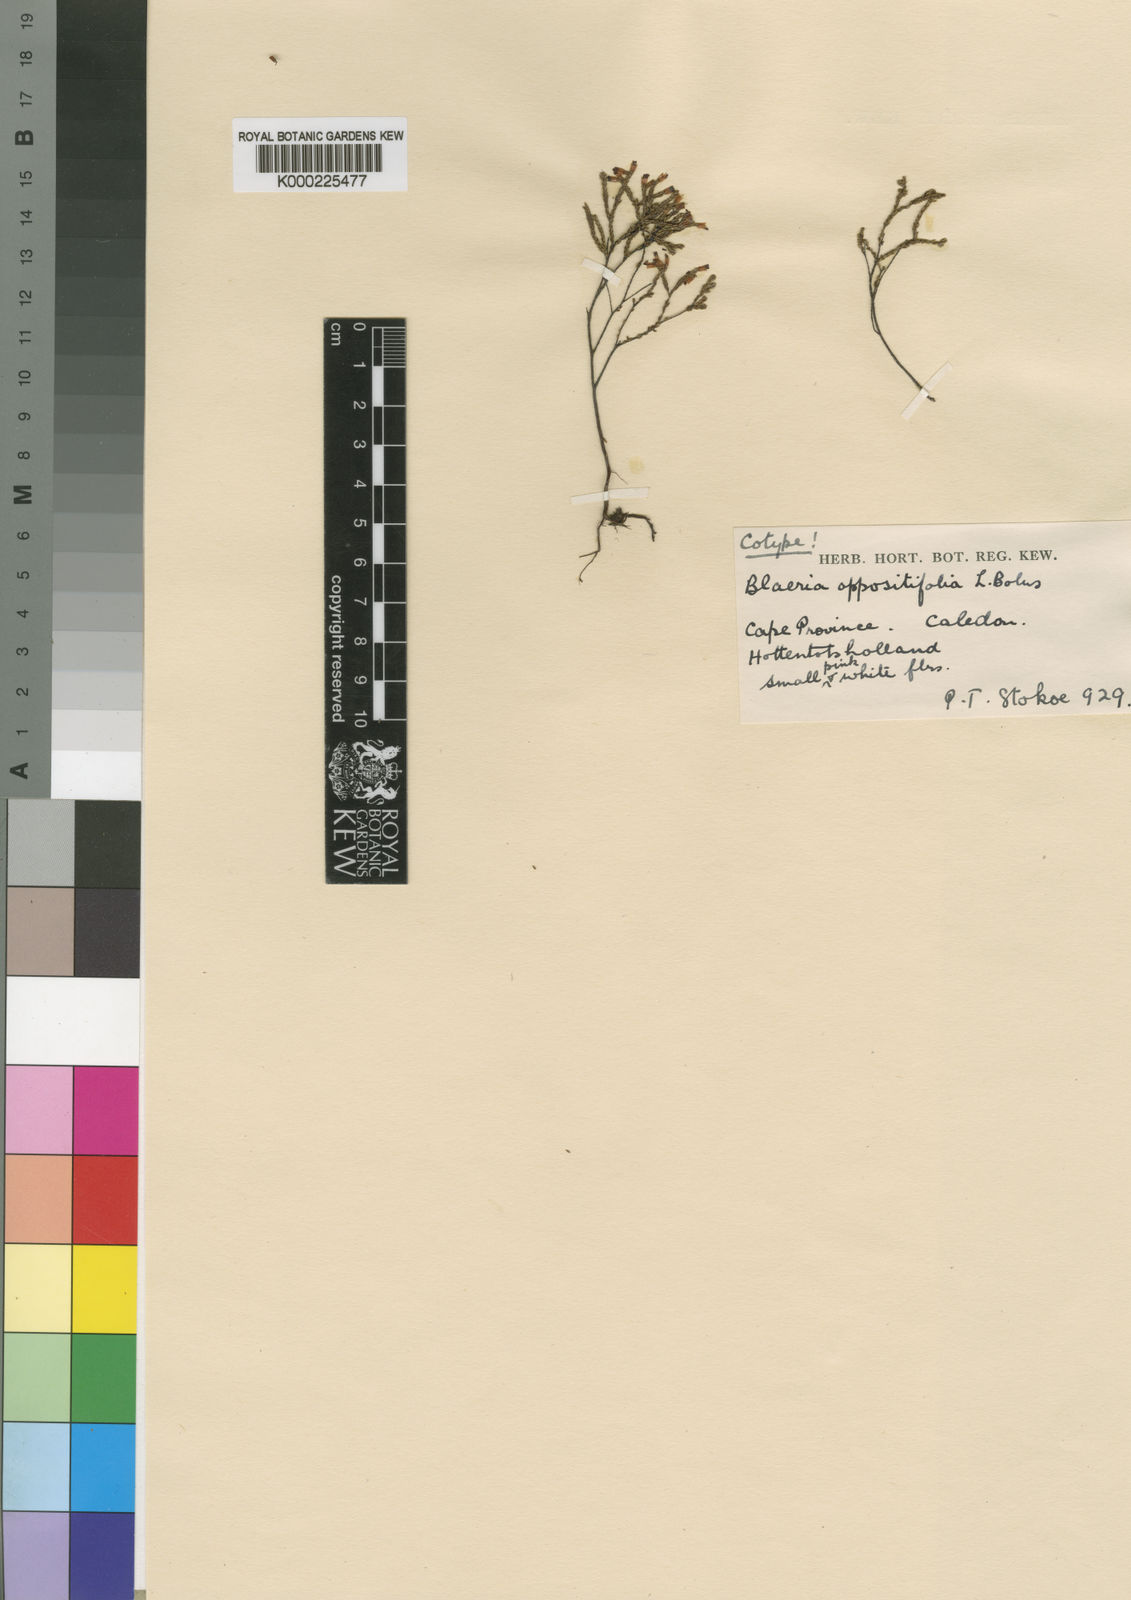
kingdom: Plantae
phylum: Tracheophyta
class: Magnoliopsida
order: Ericales
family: Ericaceae
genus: Erica
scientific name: Erica equisetifolia
